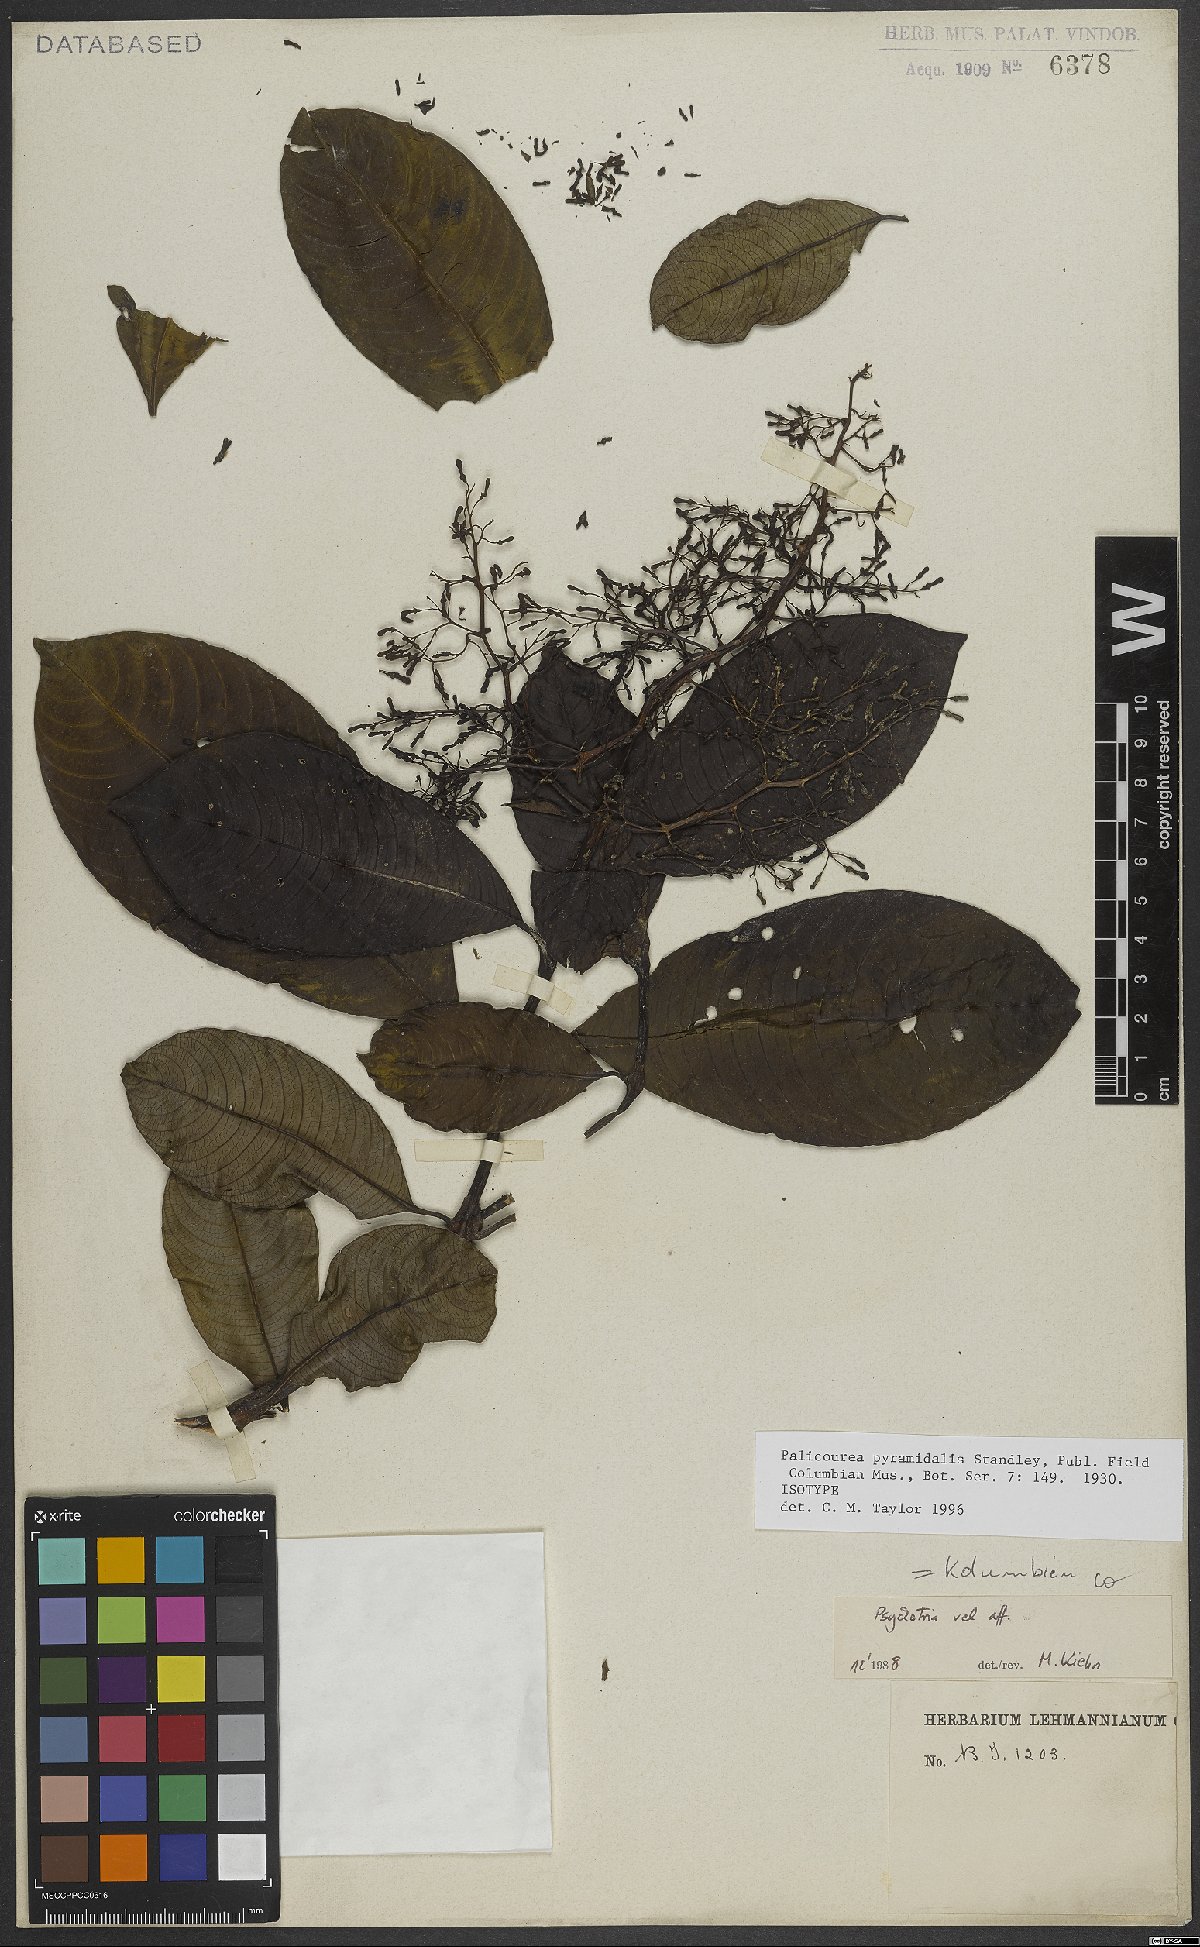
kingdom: Plantae
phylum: Tracheophyta
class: Magnoliopsida
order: Gentianales
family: Rubiaceae
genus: Palicourea
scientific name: Palicourea pyramidalis
